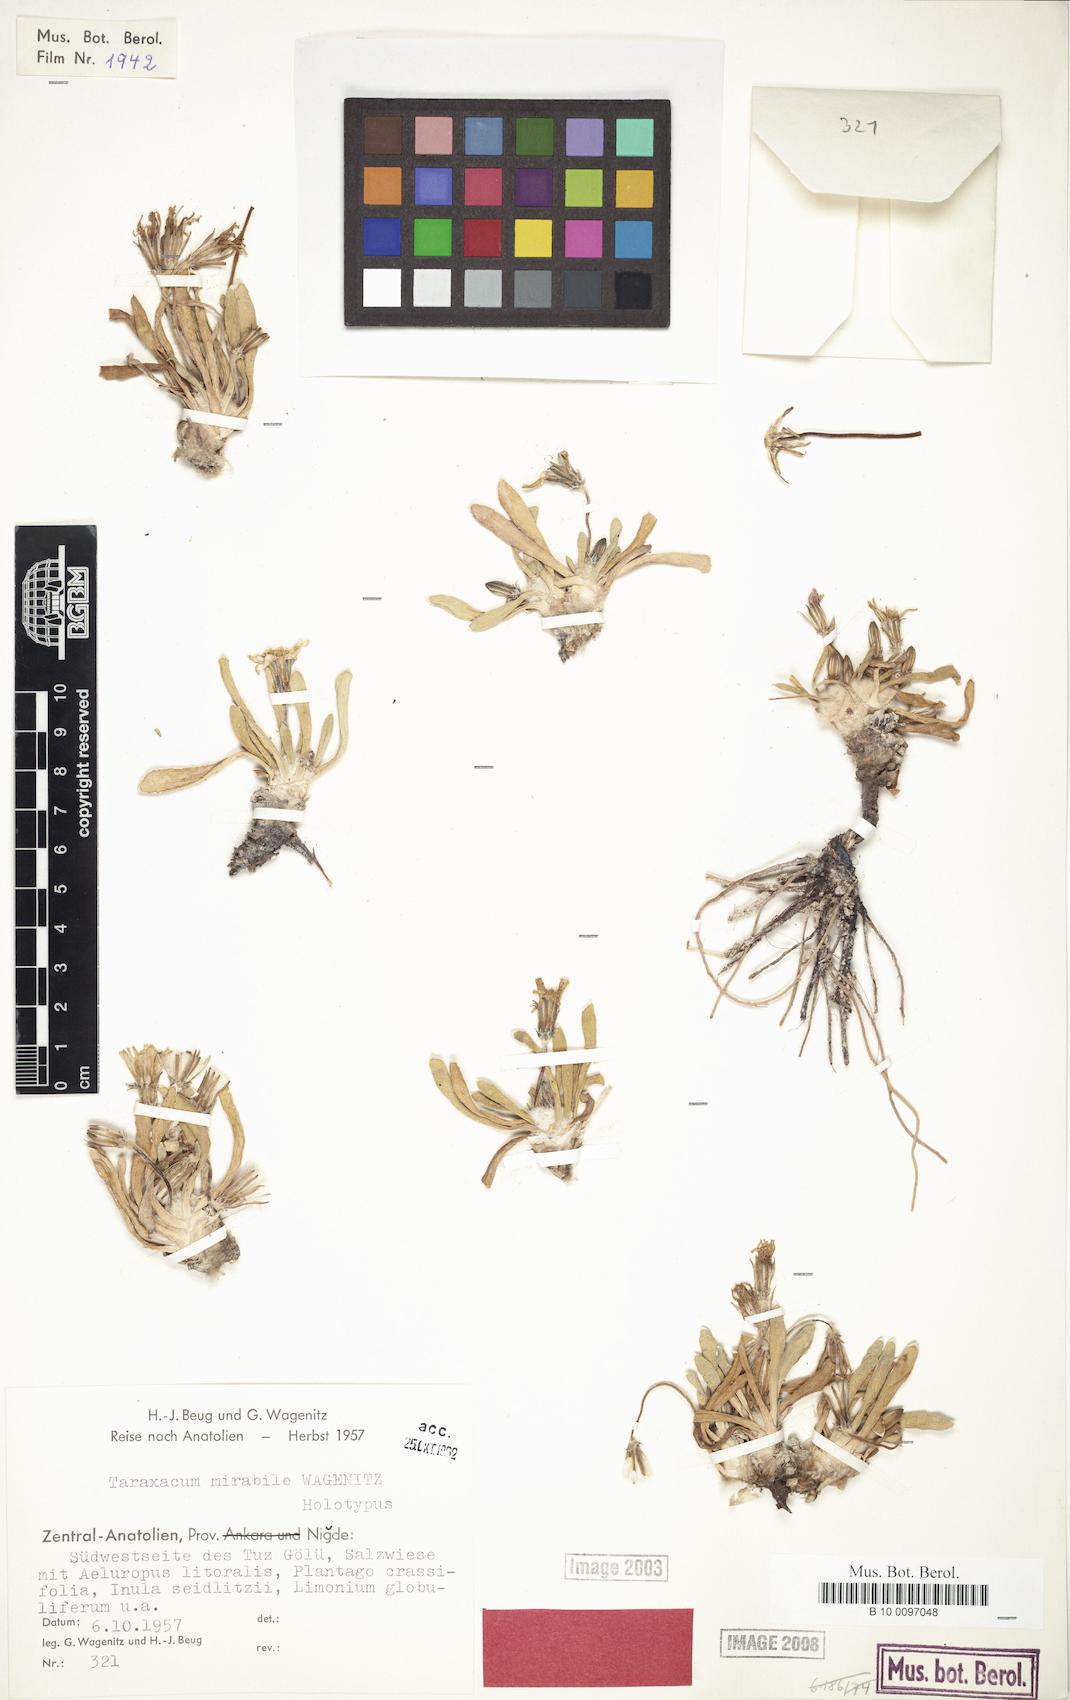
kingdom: Plantae
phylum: Tracheophyta
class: Magnoliopsida
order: Asterales
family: Asteraceae
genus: Taraxacum
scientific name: Taraxacum mirabile
